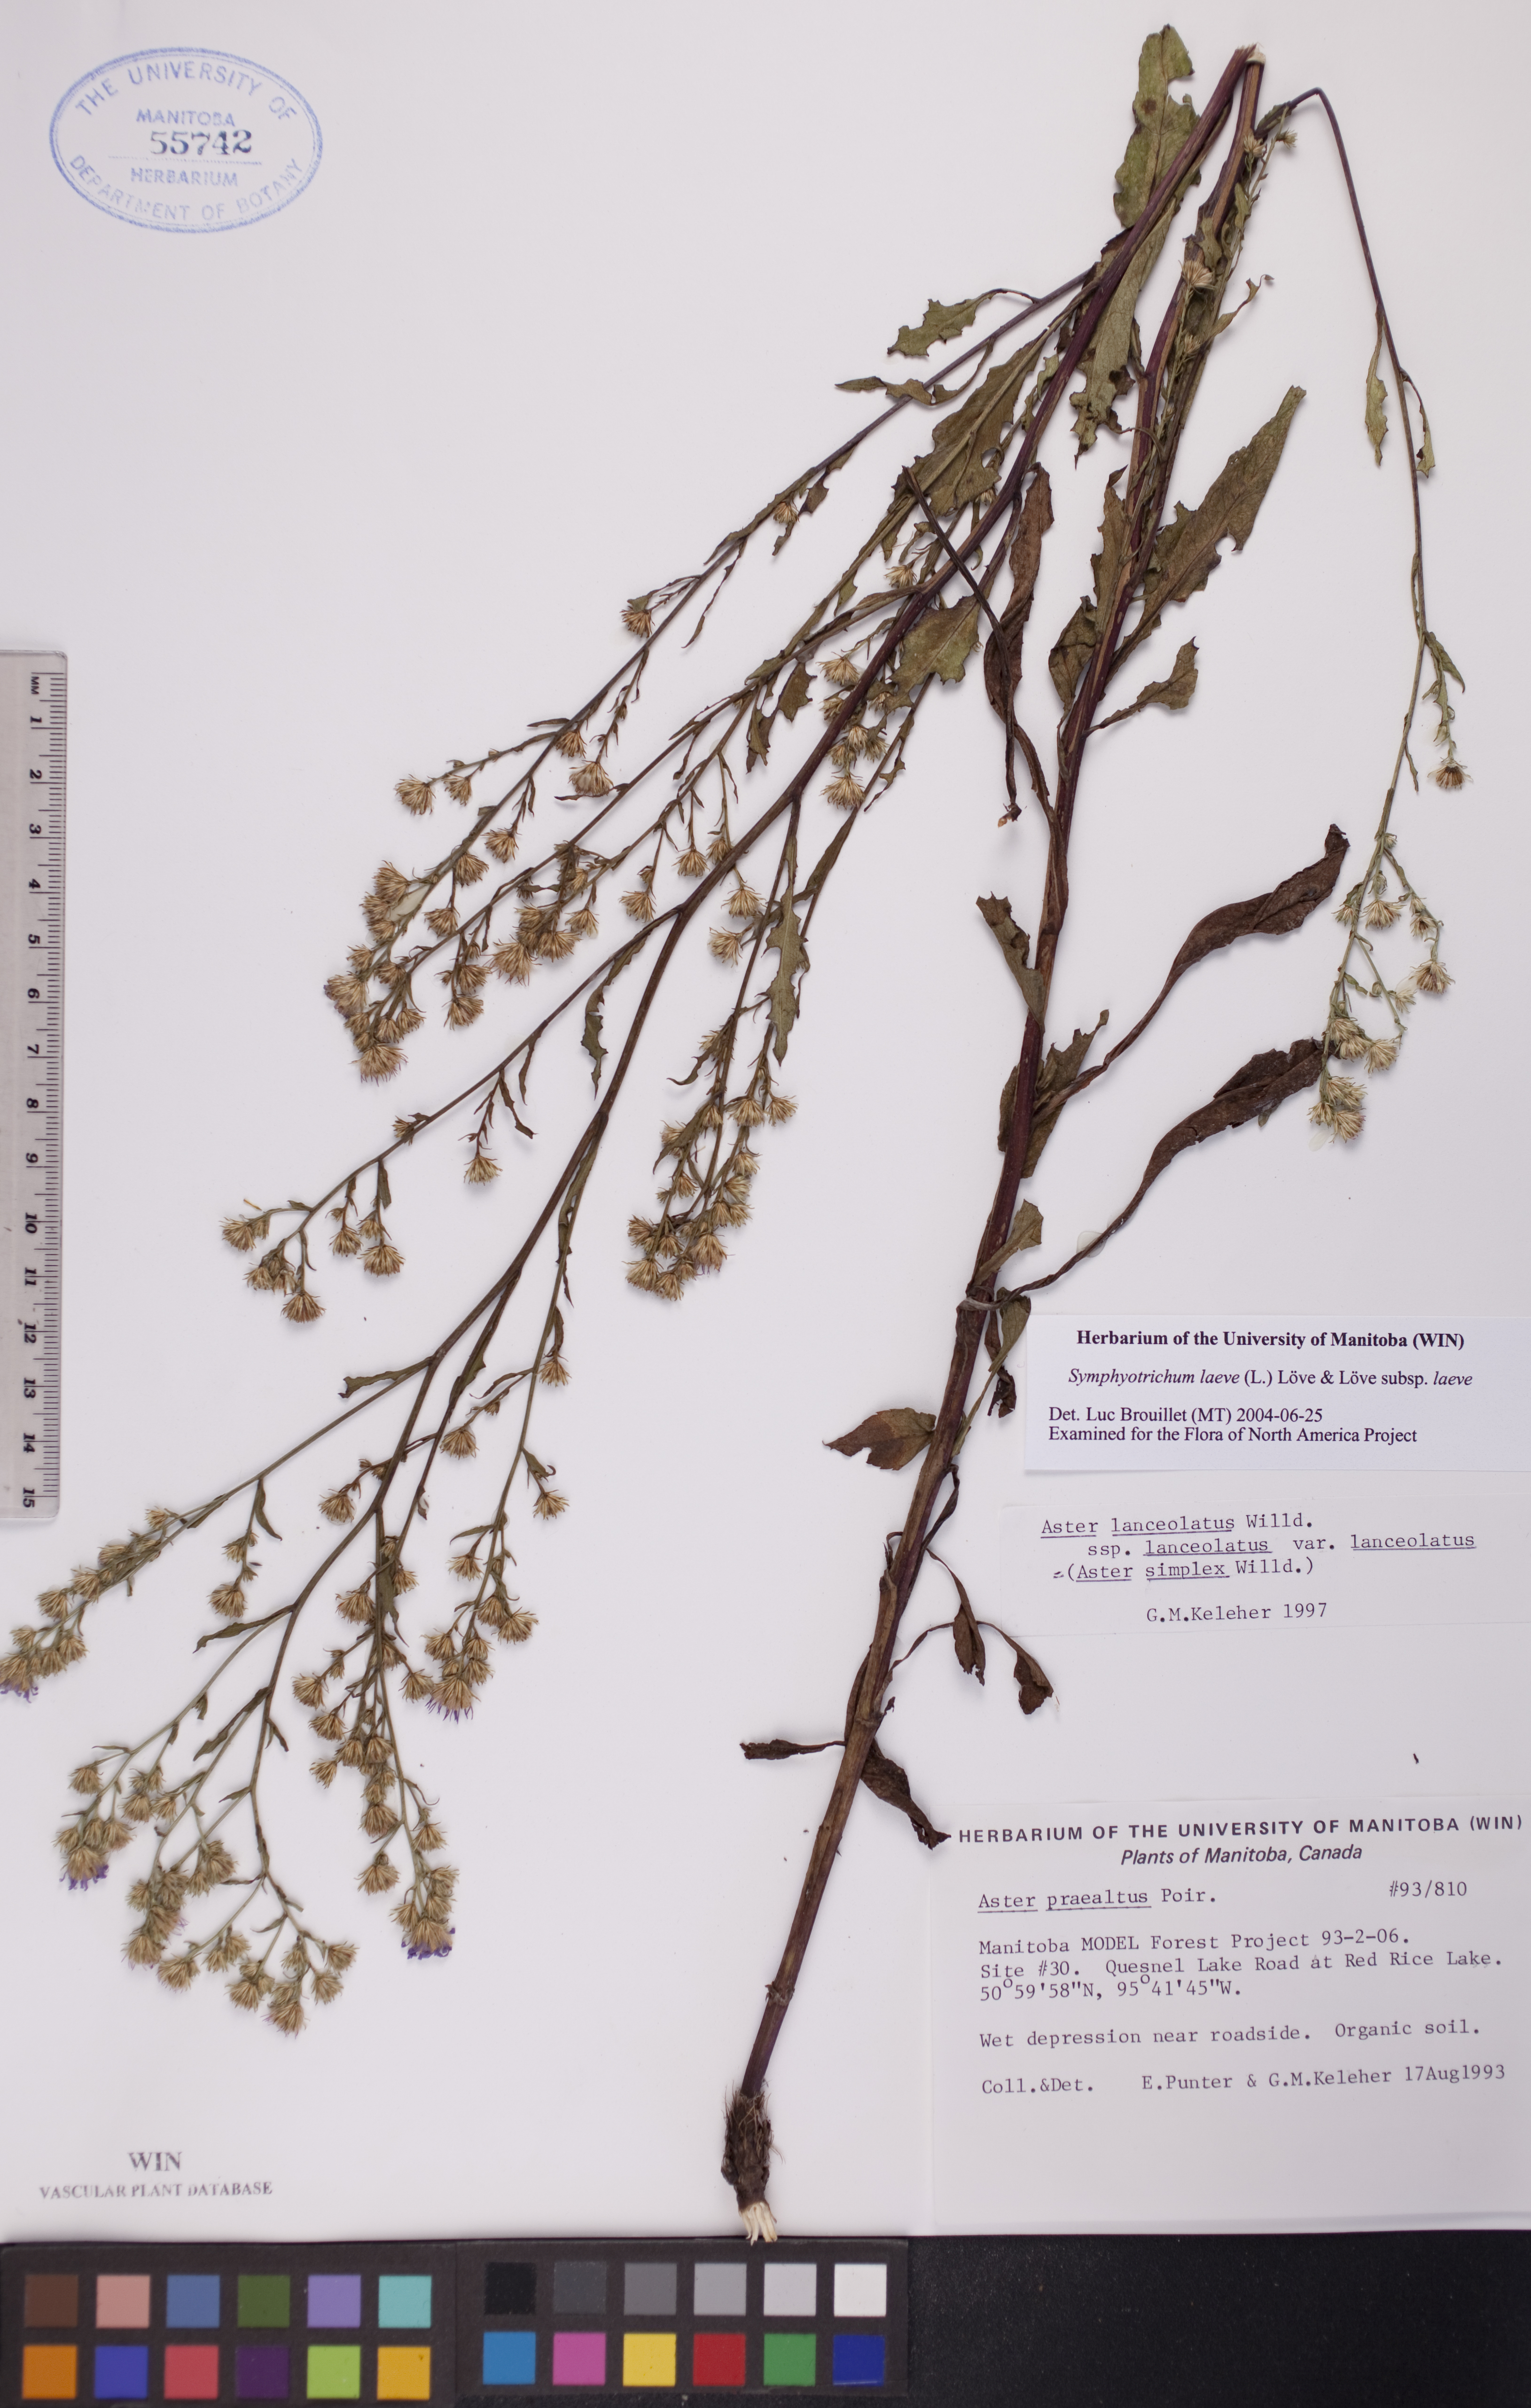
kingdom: Plantae
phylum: Tracheophyta
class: Magnoliopsida
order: Asterales
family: Asteraceae
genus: Symphyotrichum
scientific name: Symphyotrichum laeve
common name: Glaucous aster
